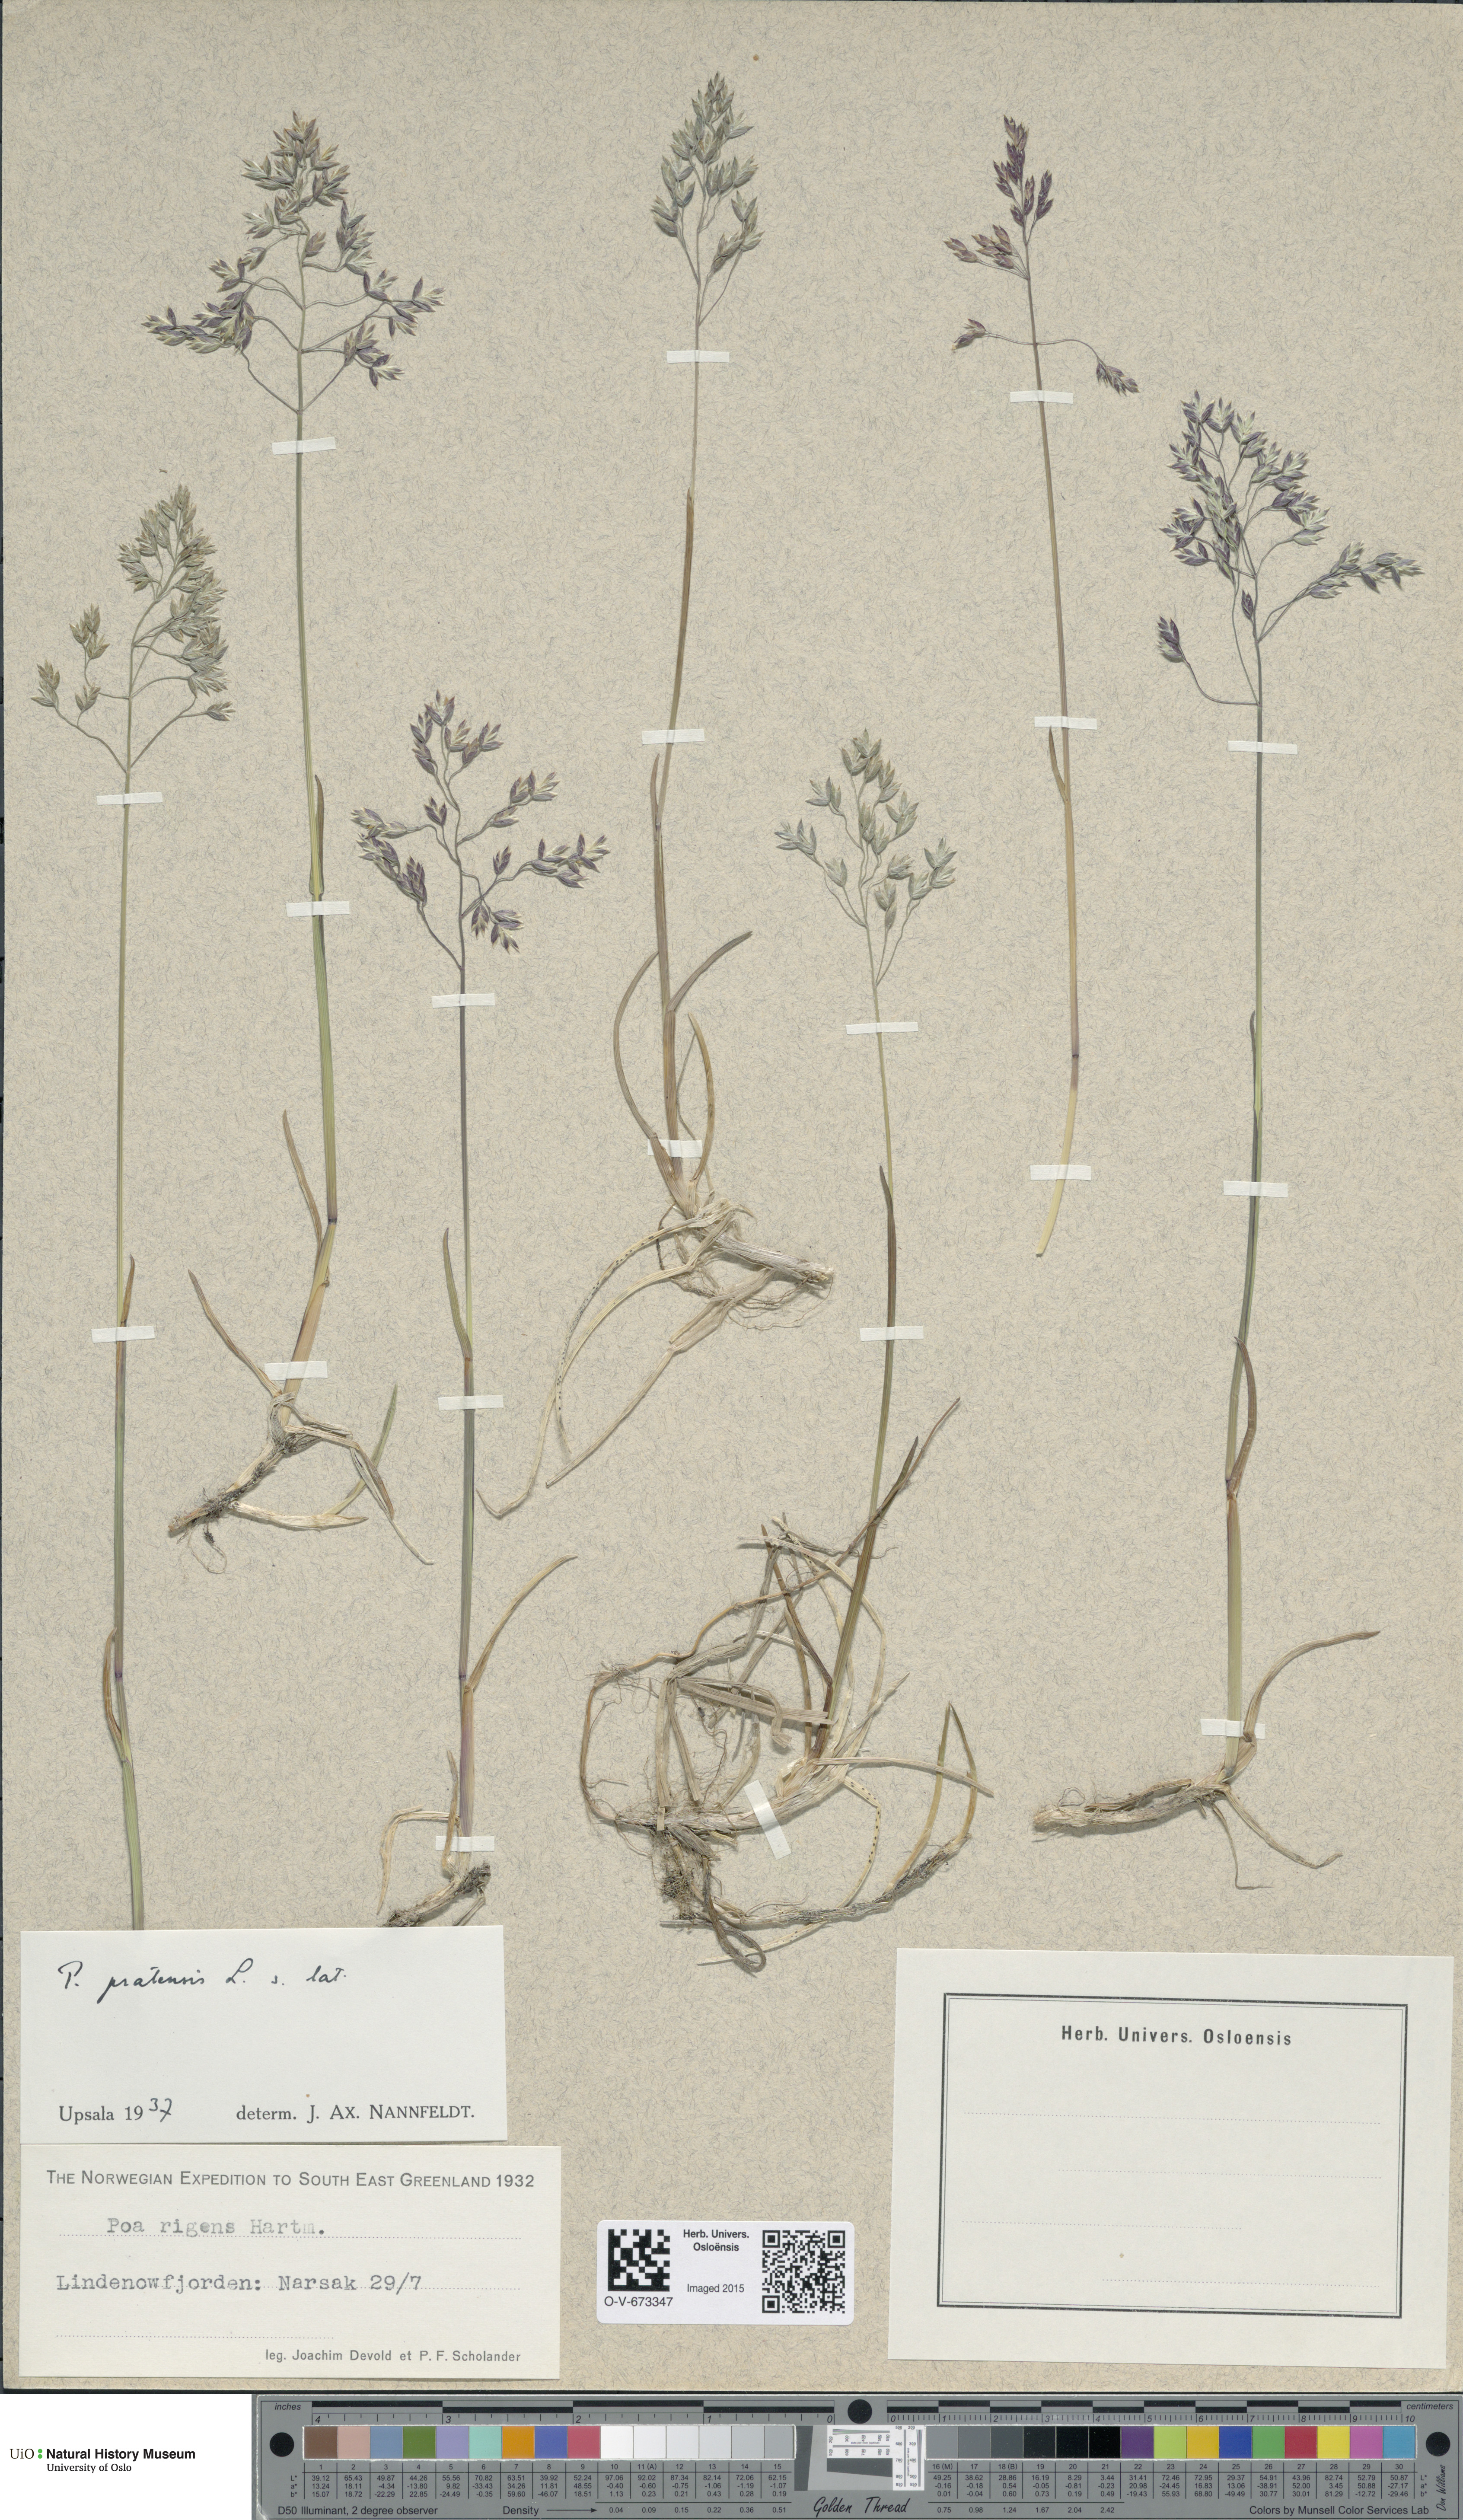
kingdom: Plantae
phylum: Tracheophyta
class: Liliopsida
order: Poales
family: Poaceae
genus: Poa
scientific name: Poa pratensis
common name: Kentucky bluegrass
